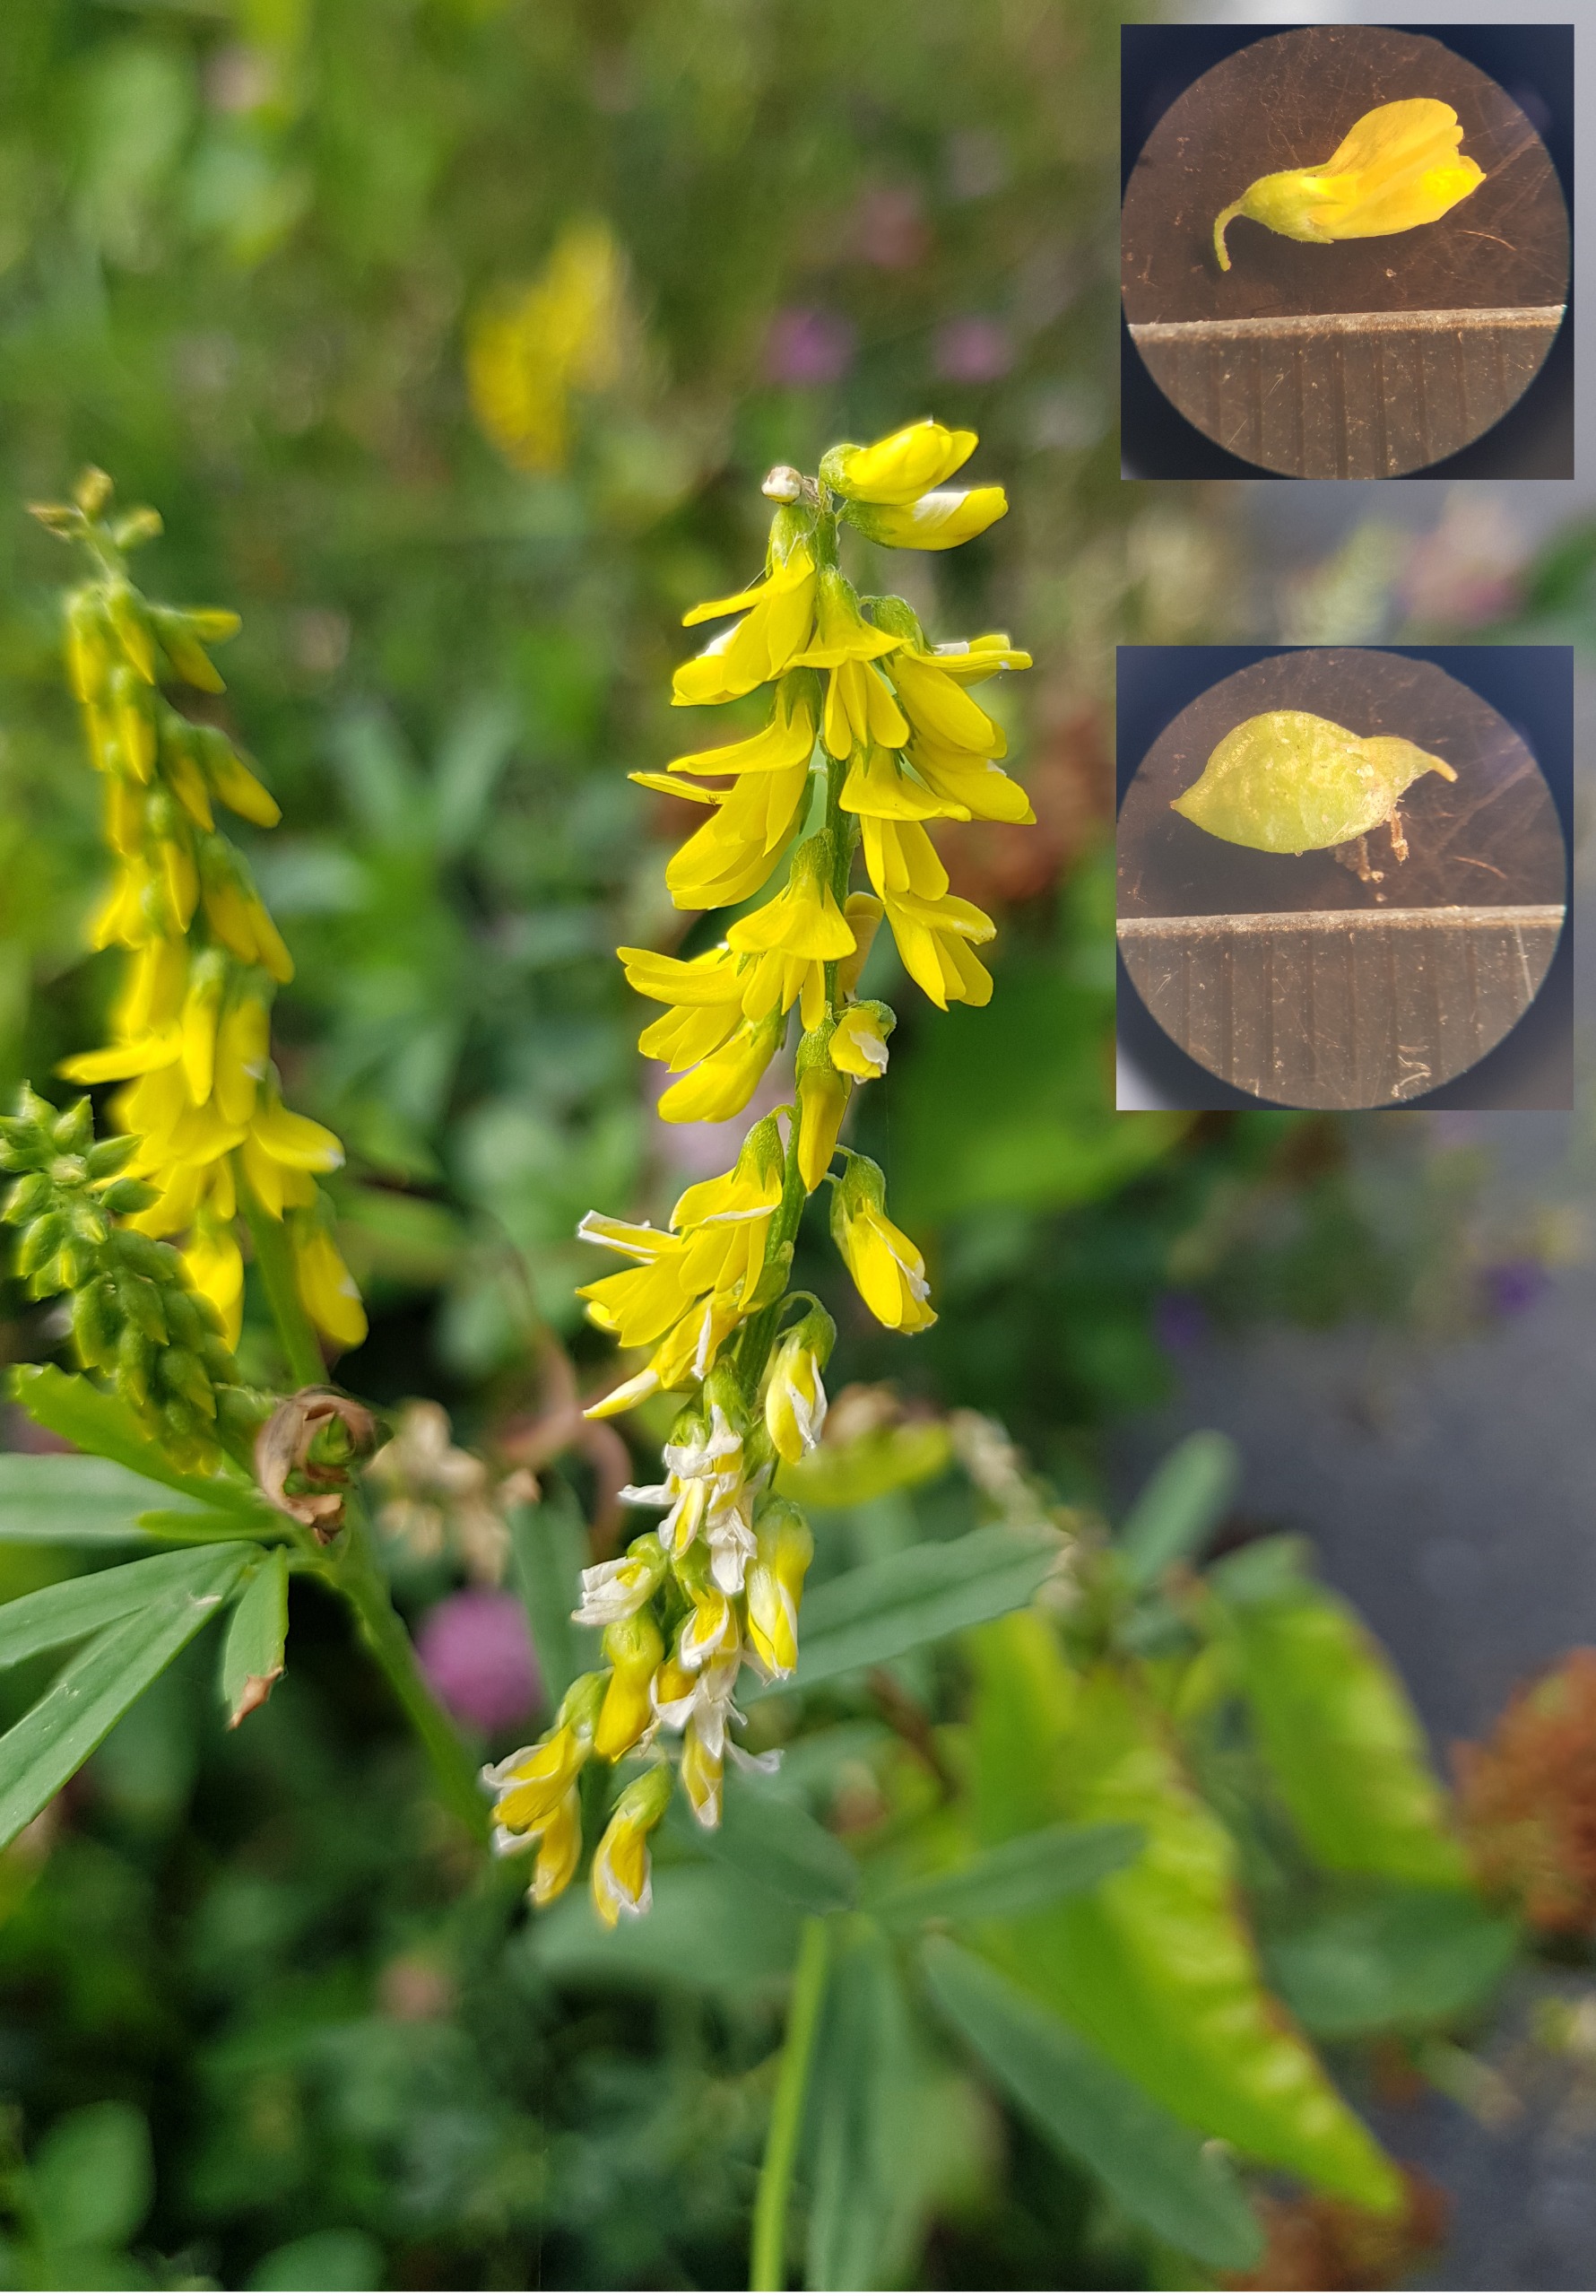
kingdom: Plantae
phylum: Tracheophyta
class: Magnoliopsida
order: Fabales
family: Fabaceae
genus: Melilotus
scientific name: Melilotus altissimus
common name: Høj stenkløver
